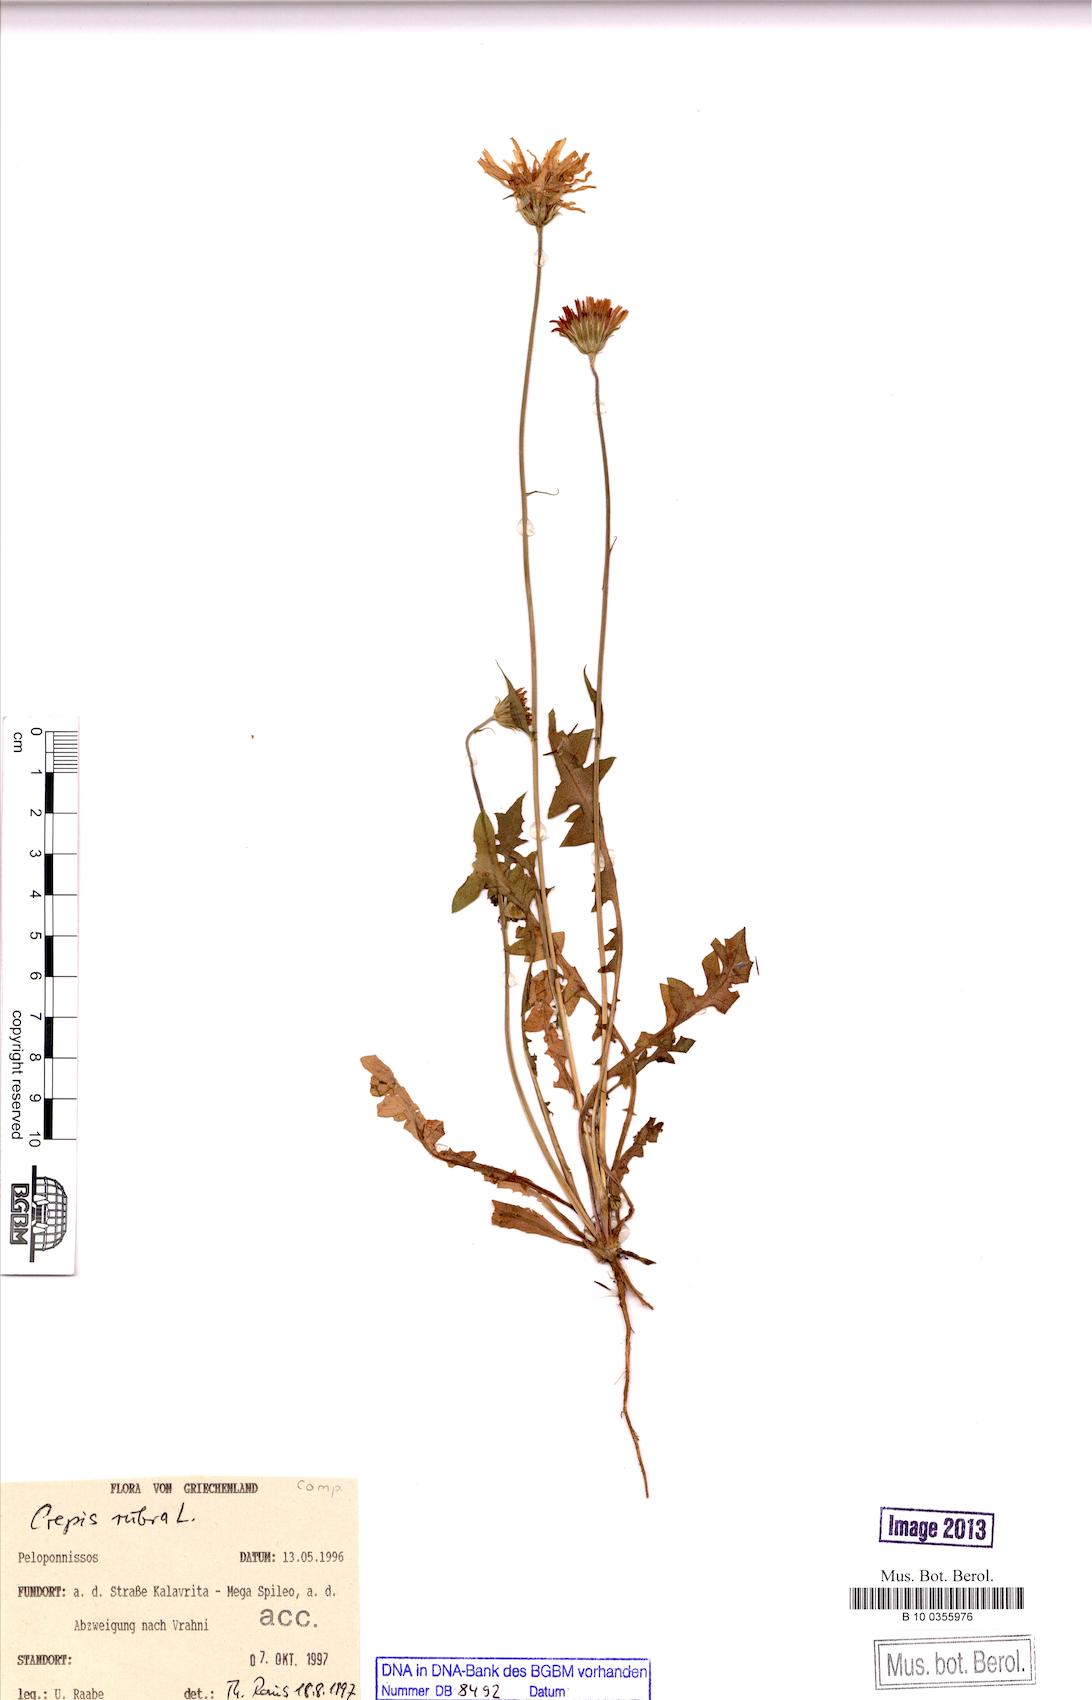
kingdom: Plantae
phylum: Tracheophyta
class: Magnoliopsida
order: Asterales
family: Asteraceae
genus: Crepis
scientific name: Crepis rubra
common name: Pink hawk's-beard
